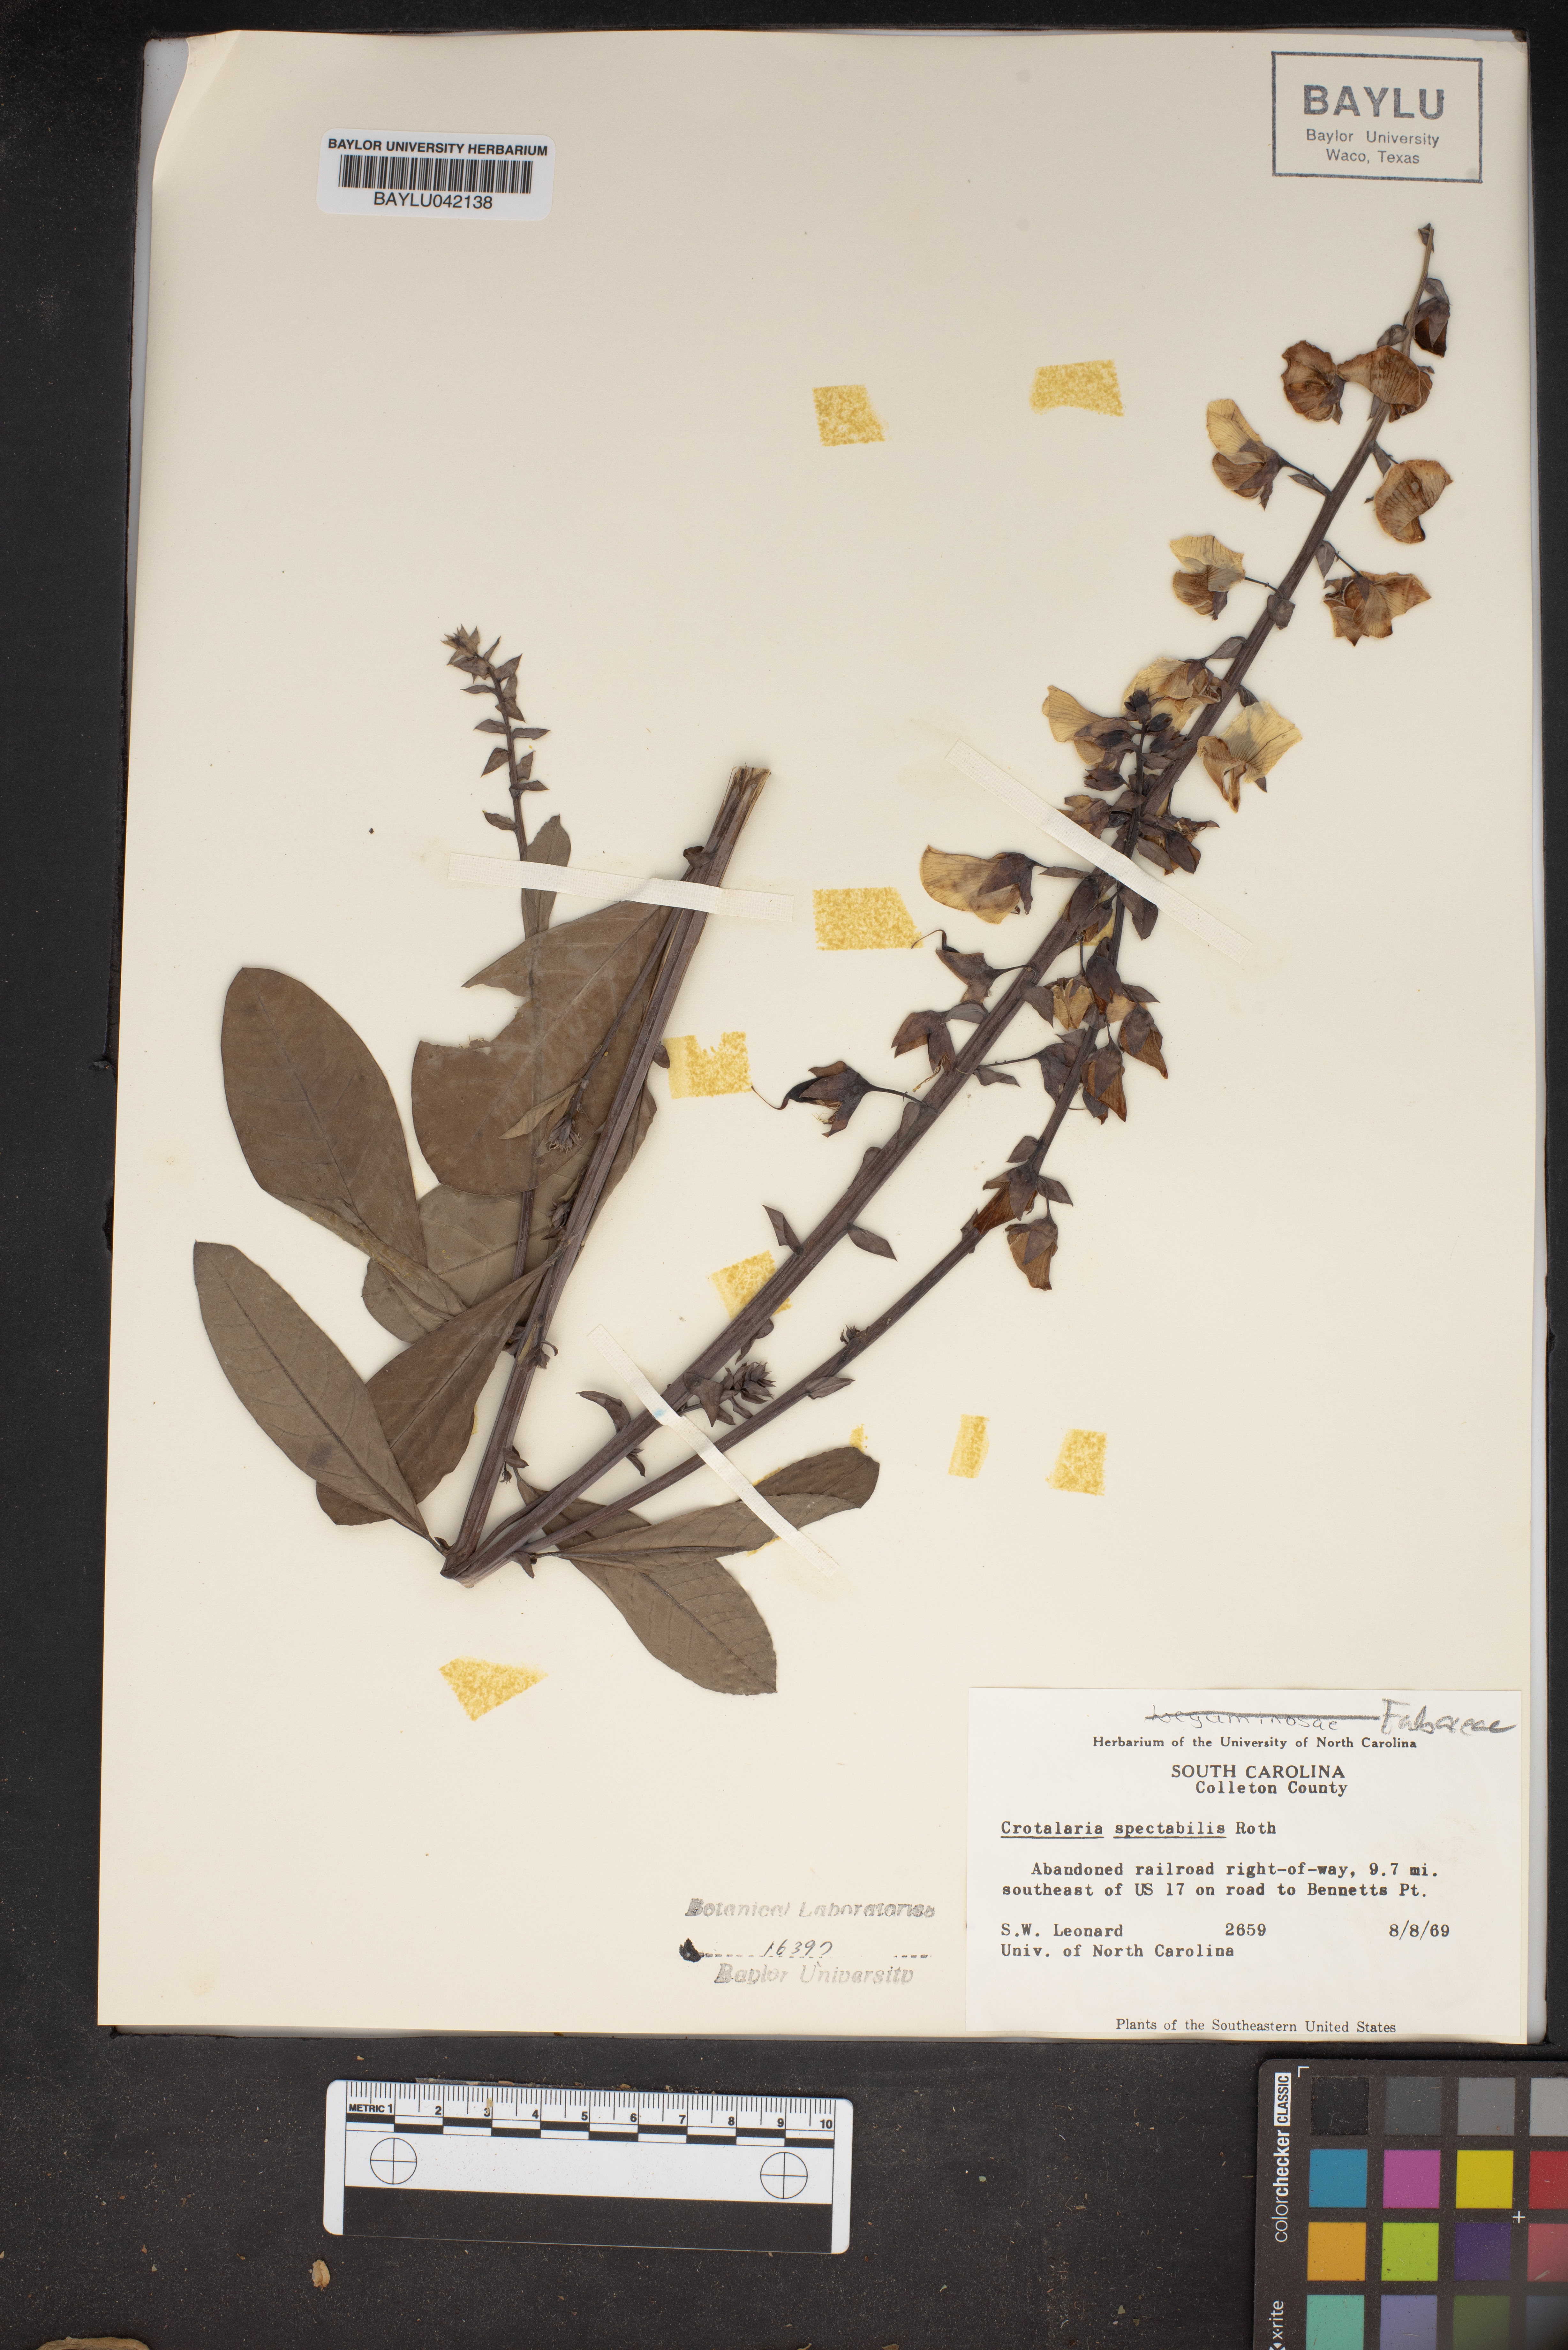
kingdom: Plantae
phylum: Tracheophyta
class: Magnoliopsida
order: Fabales
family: Fabaceae
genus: Crotalaria
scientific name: Crotalaria spectabilis
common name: Showy rattlebox
